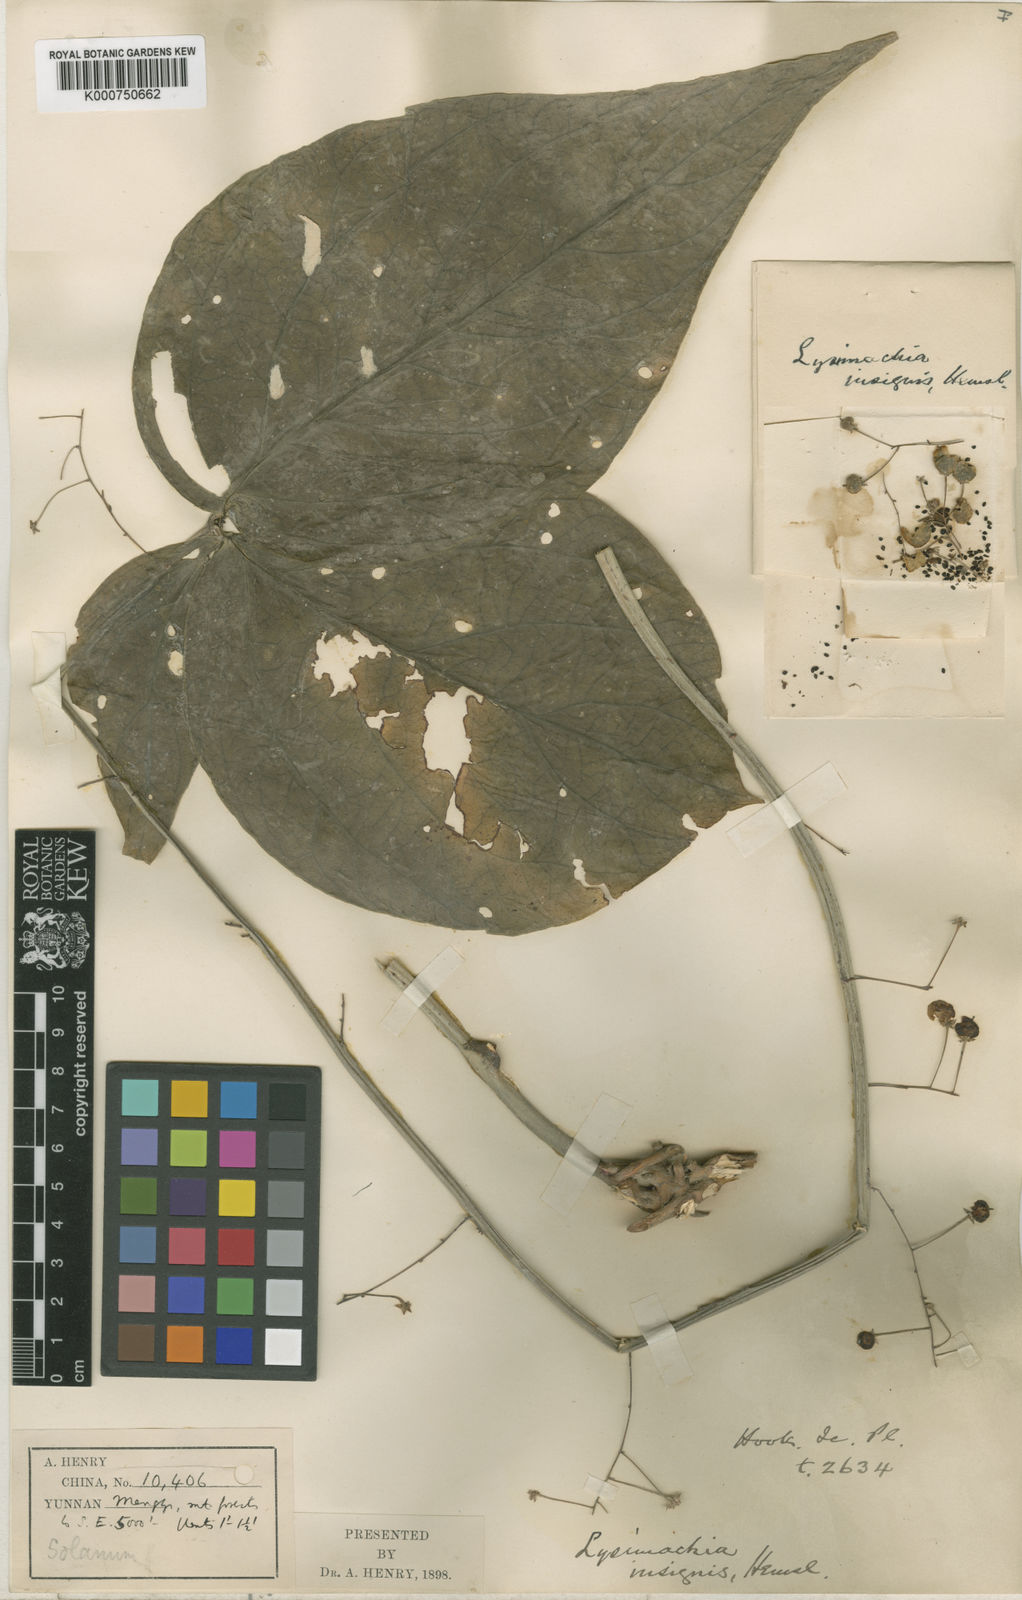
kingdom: Plantae
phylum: Tracheophyta
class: Magnoliopsida
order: Ericales
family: Primulaceae
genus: Lysimachia
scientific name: Lysimachia insignis
